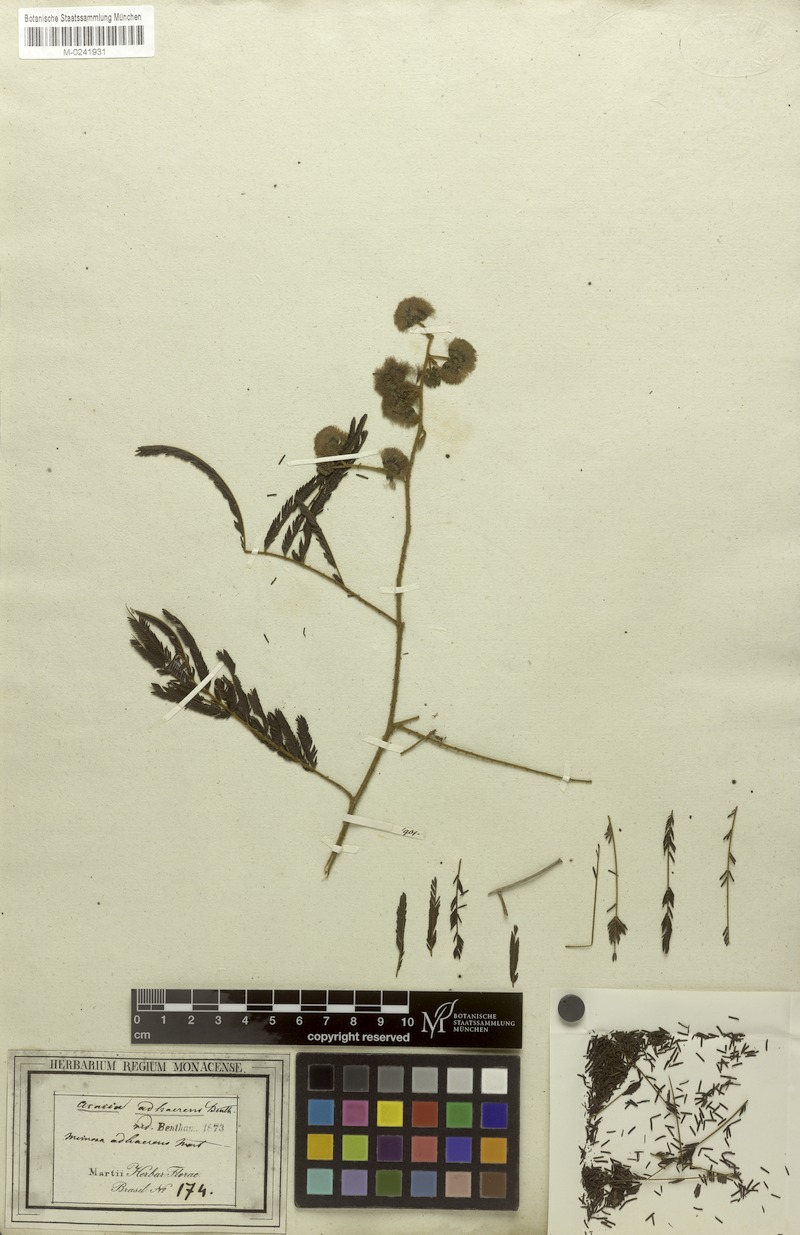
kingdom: Plantae
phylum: Tracheophyta
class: Magnoliopsida
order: Fabales
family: Fabaceae
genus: Senegalia
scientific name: Senegalia martiusiana
